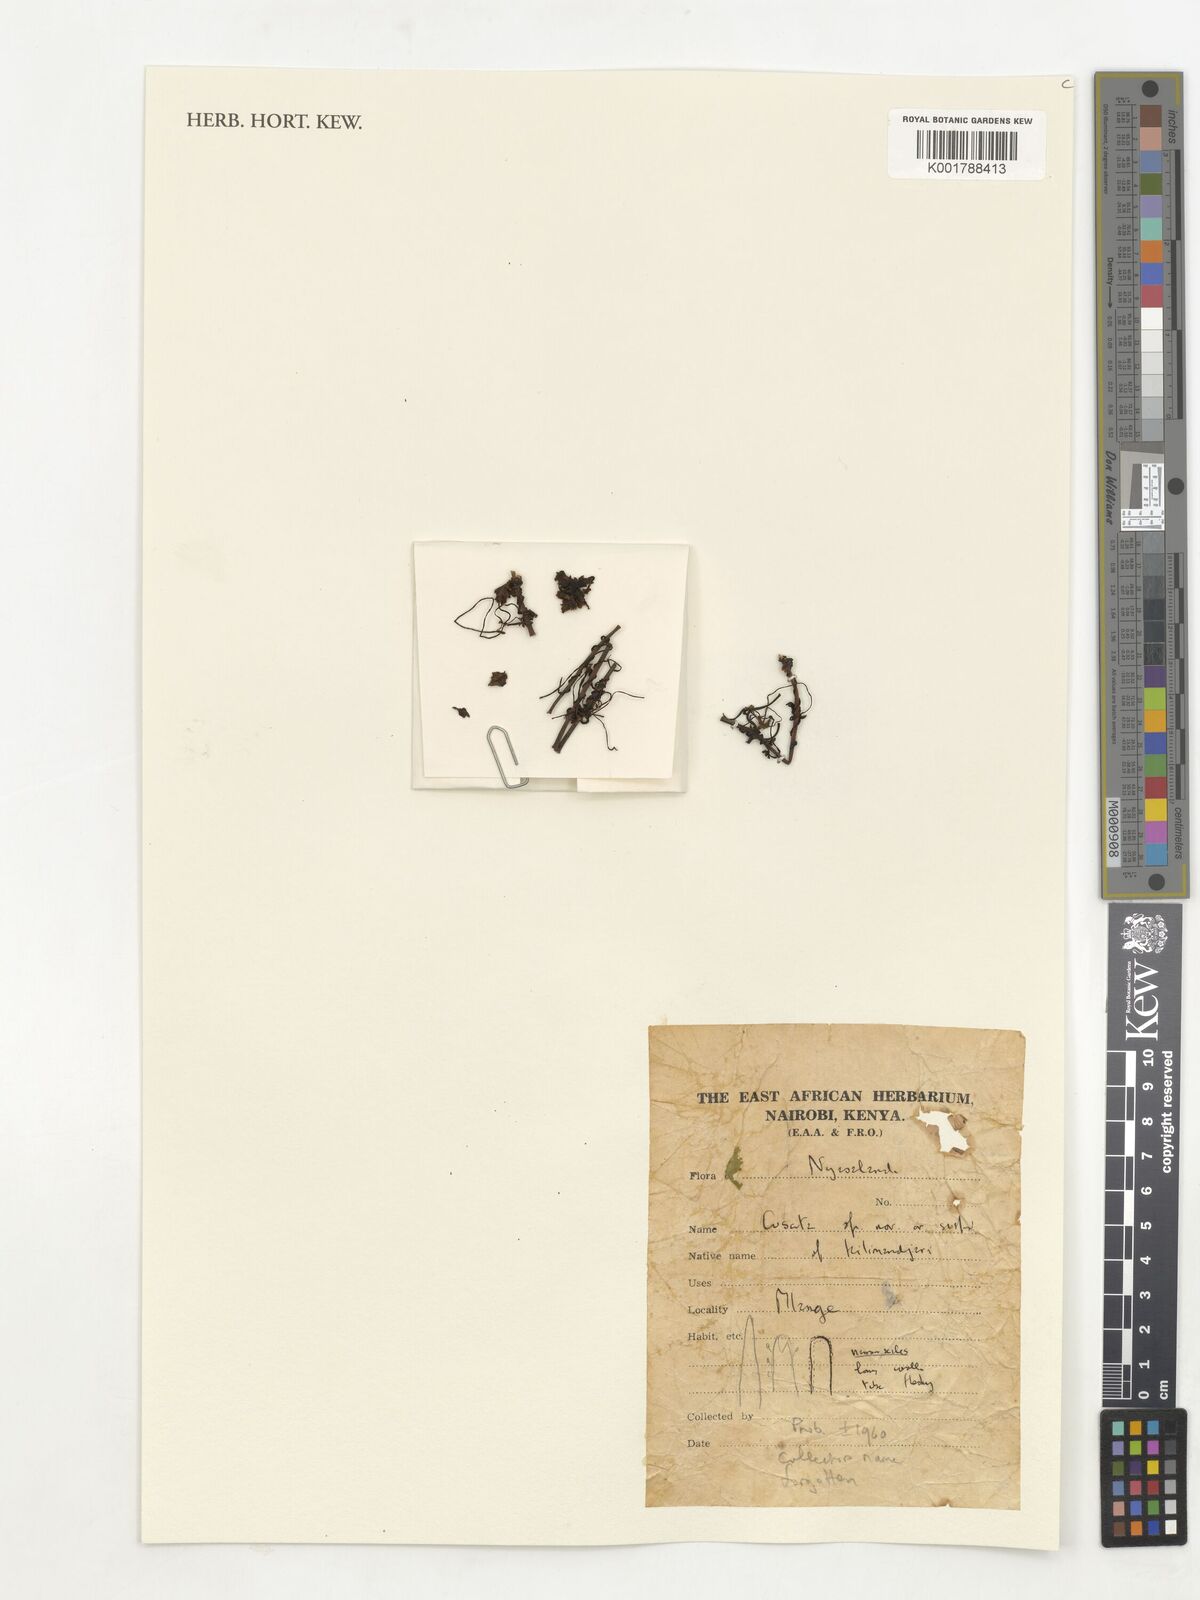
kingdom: Plantae
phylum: Tracheophyta
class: Magnoliopsida
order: Solanales
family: Convolvulaceae
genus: Cuscuta
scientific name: Cuscuta
